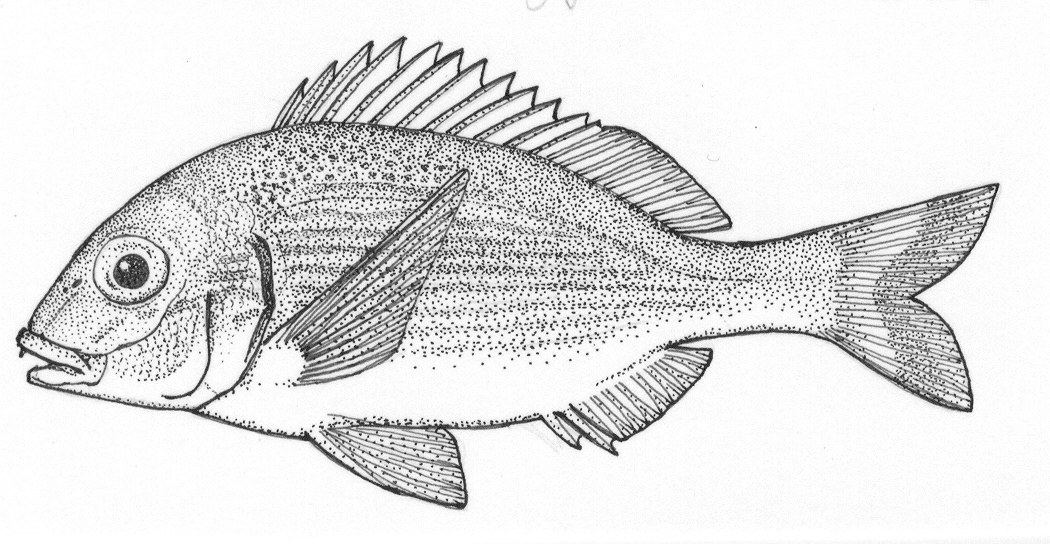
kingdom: Animalia
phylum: Chordata
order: Perciformes
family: Sparidae
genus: Pterogymnus
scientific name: Pterogymnus laniarius
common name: Panga
